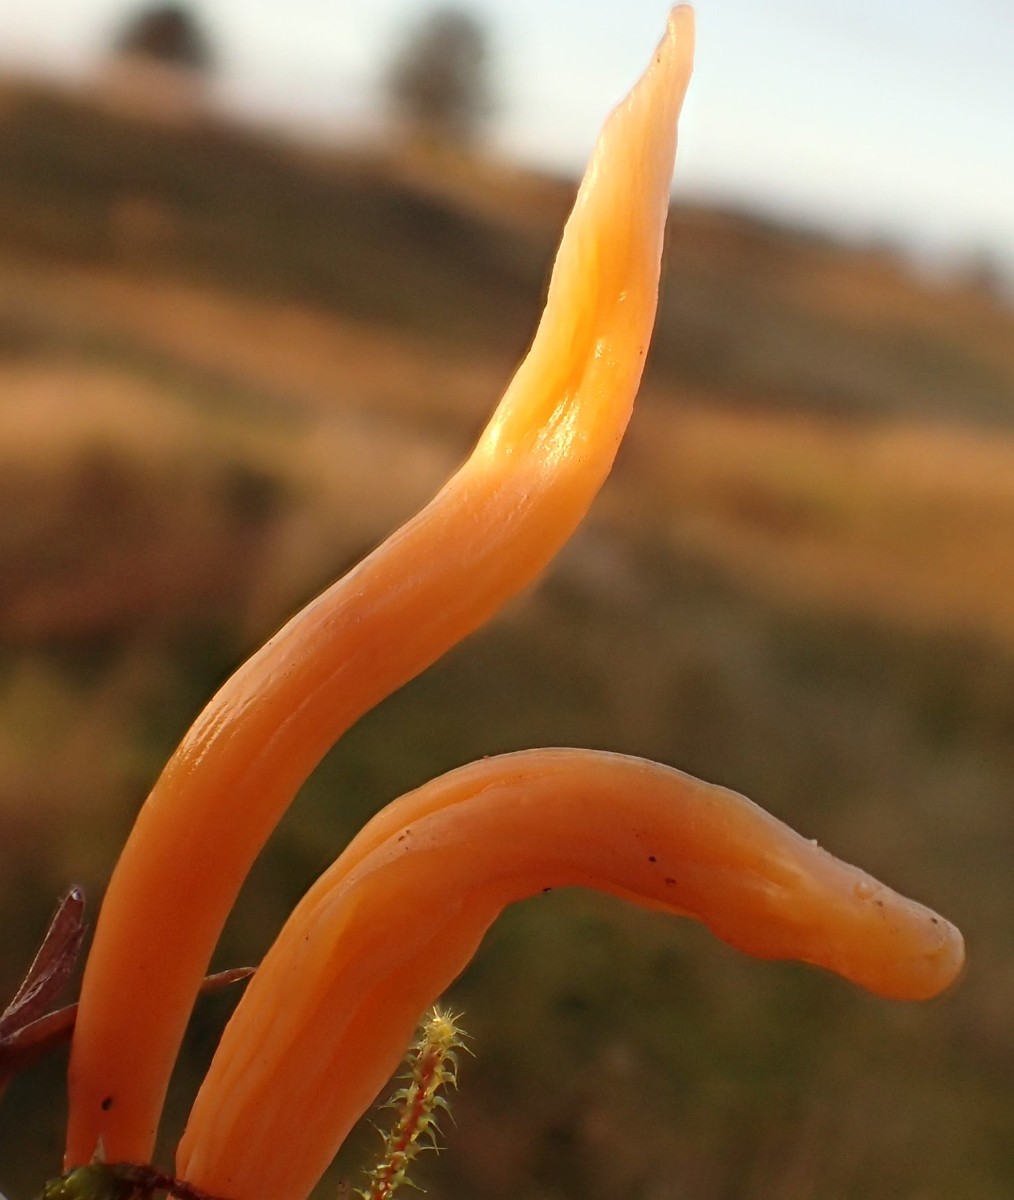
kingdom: Fungi
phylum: Basidiomycota
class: Agaricomycetes
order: Agaricales
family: Clavariaceae
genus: Clavulinopsis
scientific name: Clavulinopsis luteoalba
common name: abrikos-køllesvamp
